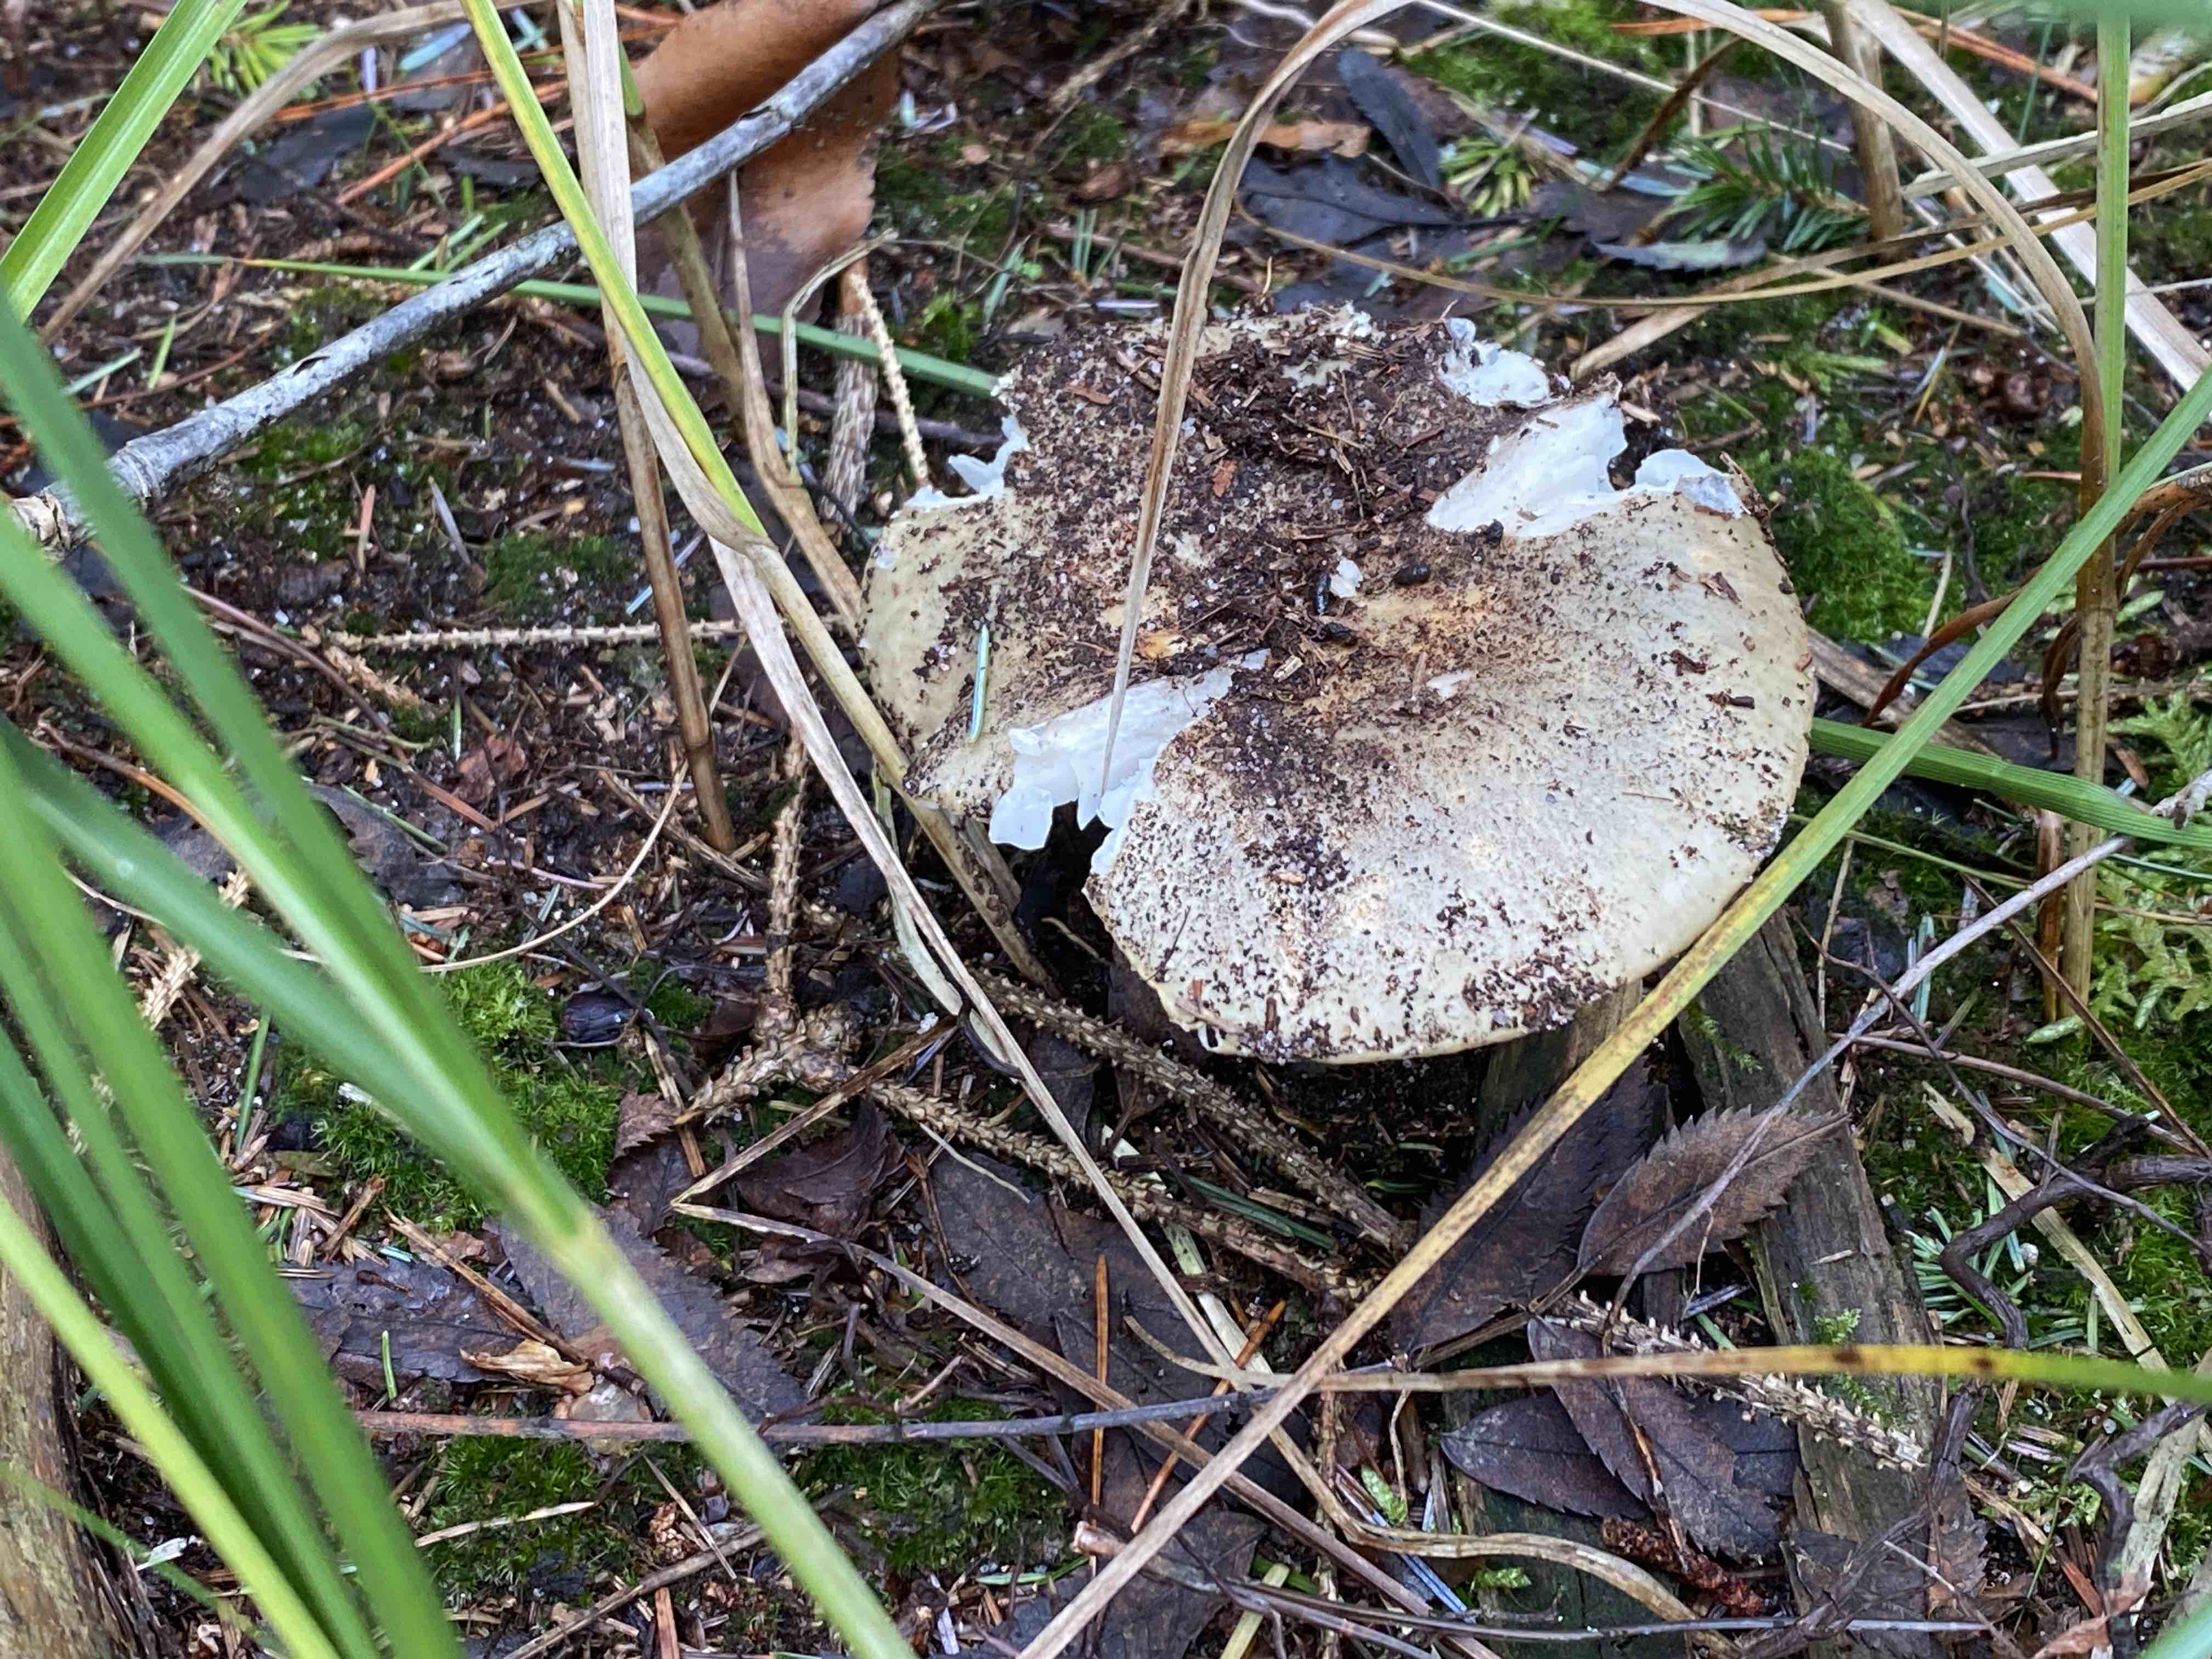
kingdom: Fungi
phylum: Basidiomycota
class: Agaricomycetes
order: Russulales
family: Russulaceae
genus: Russula
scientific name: Russula ochroleuca
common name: okkergul skørhat
